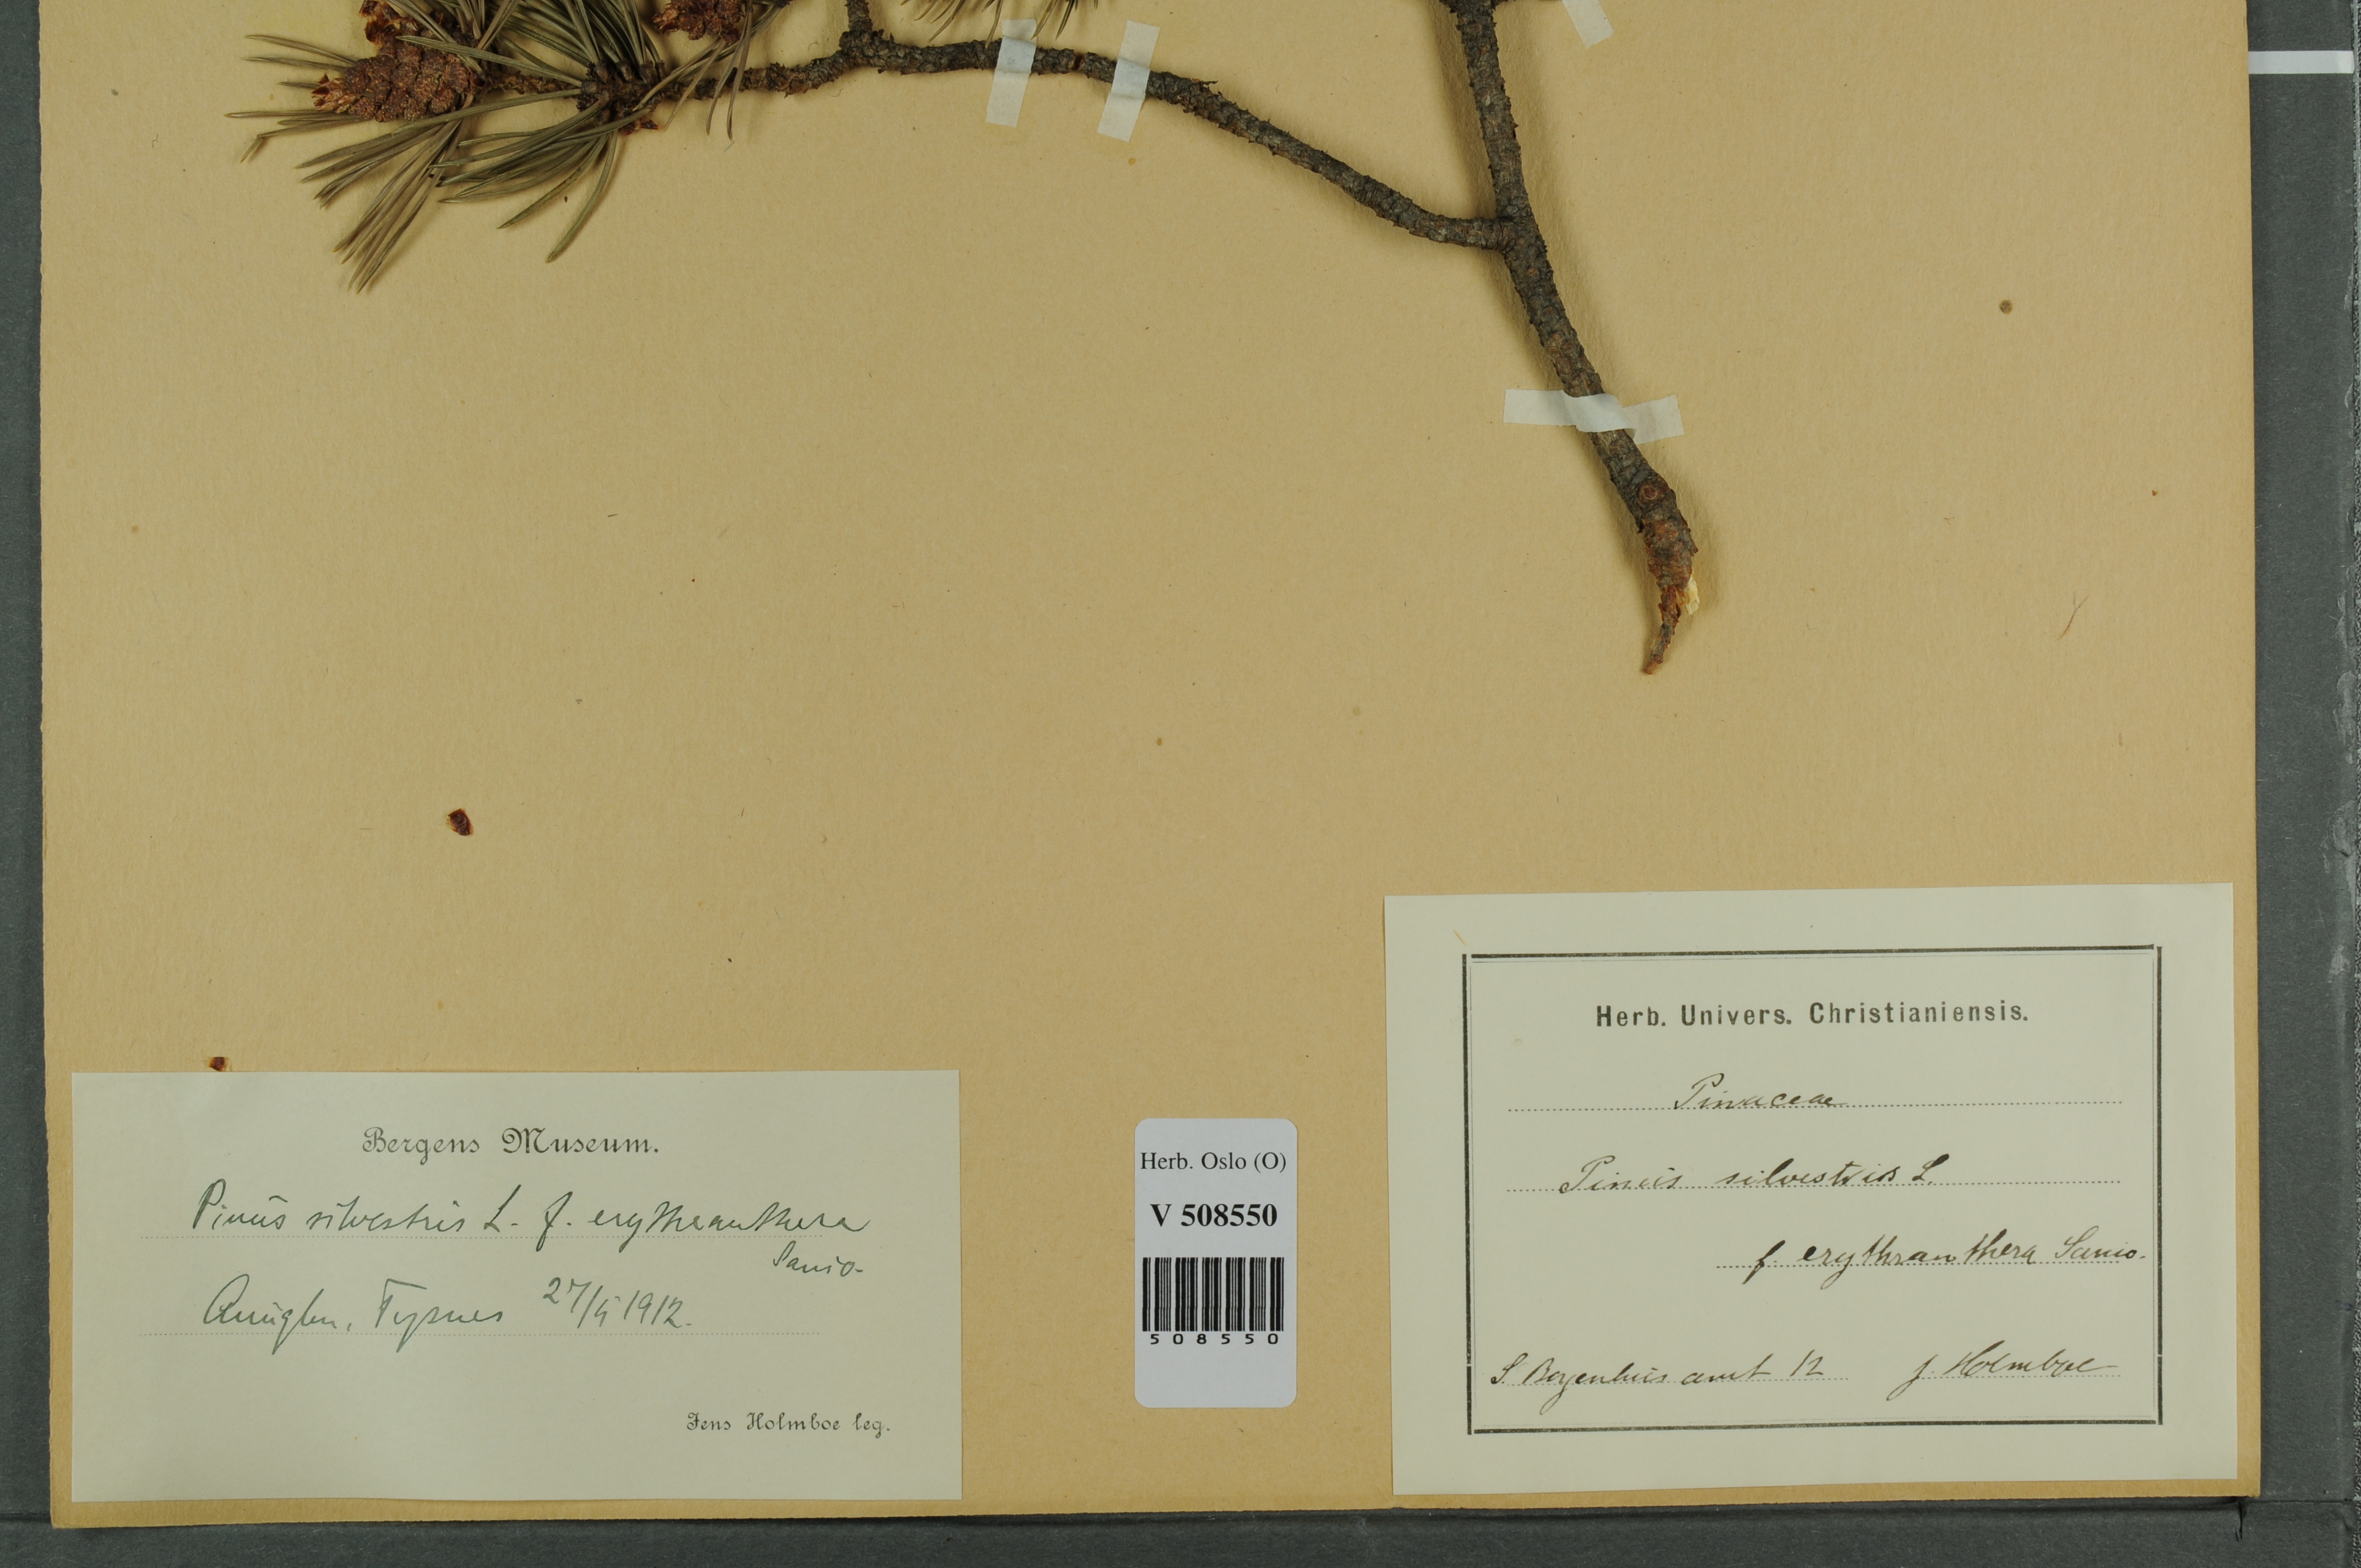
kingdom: Plantae
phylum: Tracheophyta
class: Pinopsida
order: Pinales
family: Pinaceae
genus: Pinus
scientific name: Pinus sylvestris
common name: Scots pine
